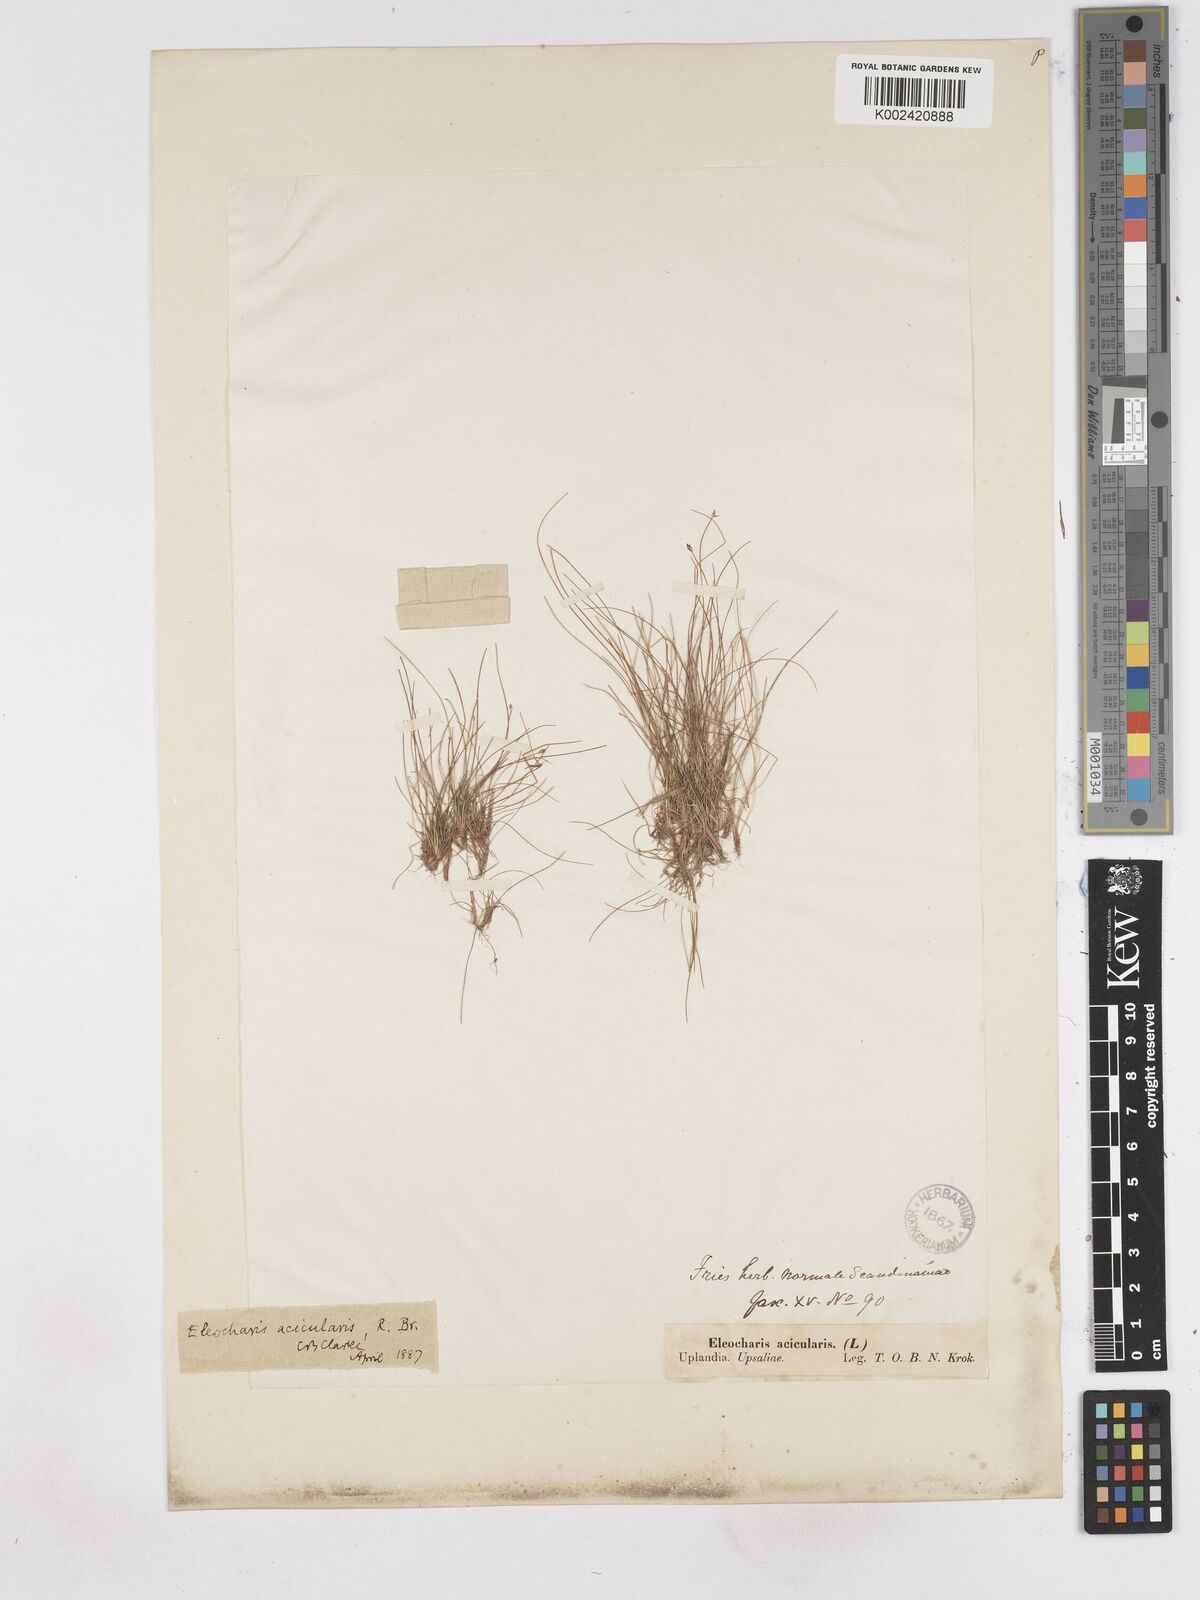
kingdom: Plantae
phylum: Tracheophyta
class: Liliopsida
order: Poales
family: Cyperaceae
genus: Eleocharis
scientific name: Eleocharis acicularis
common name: Needle spike-rush
